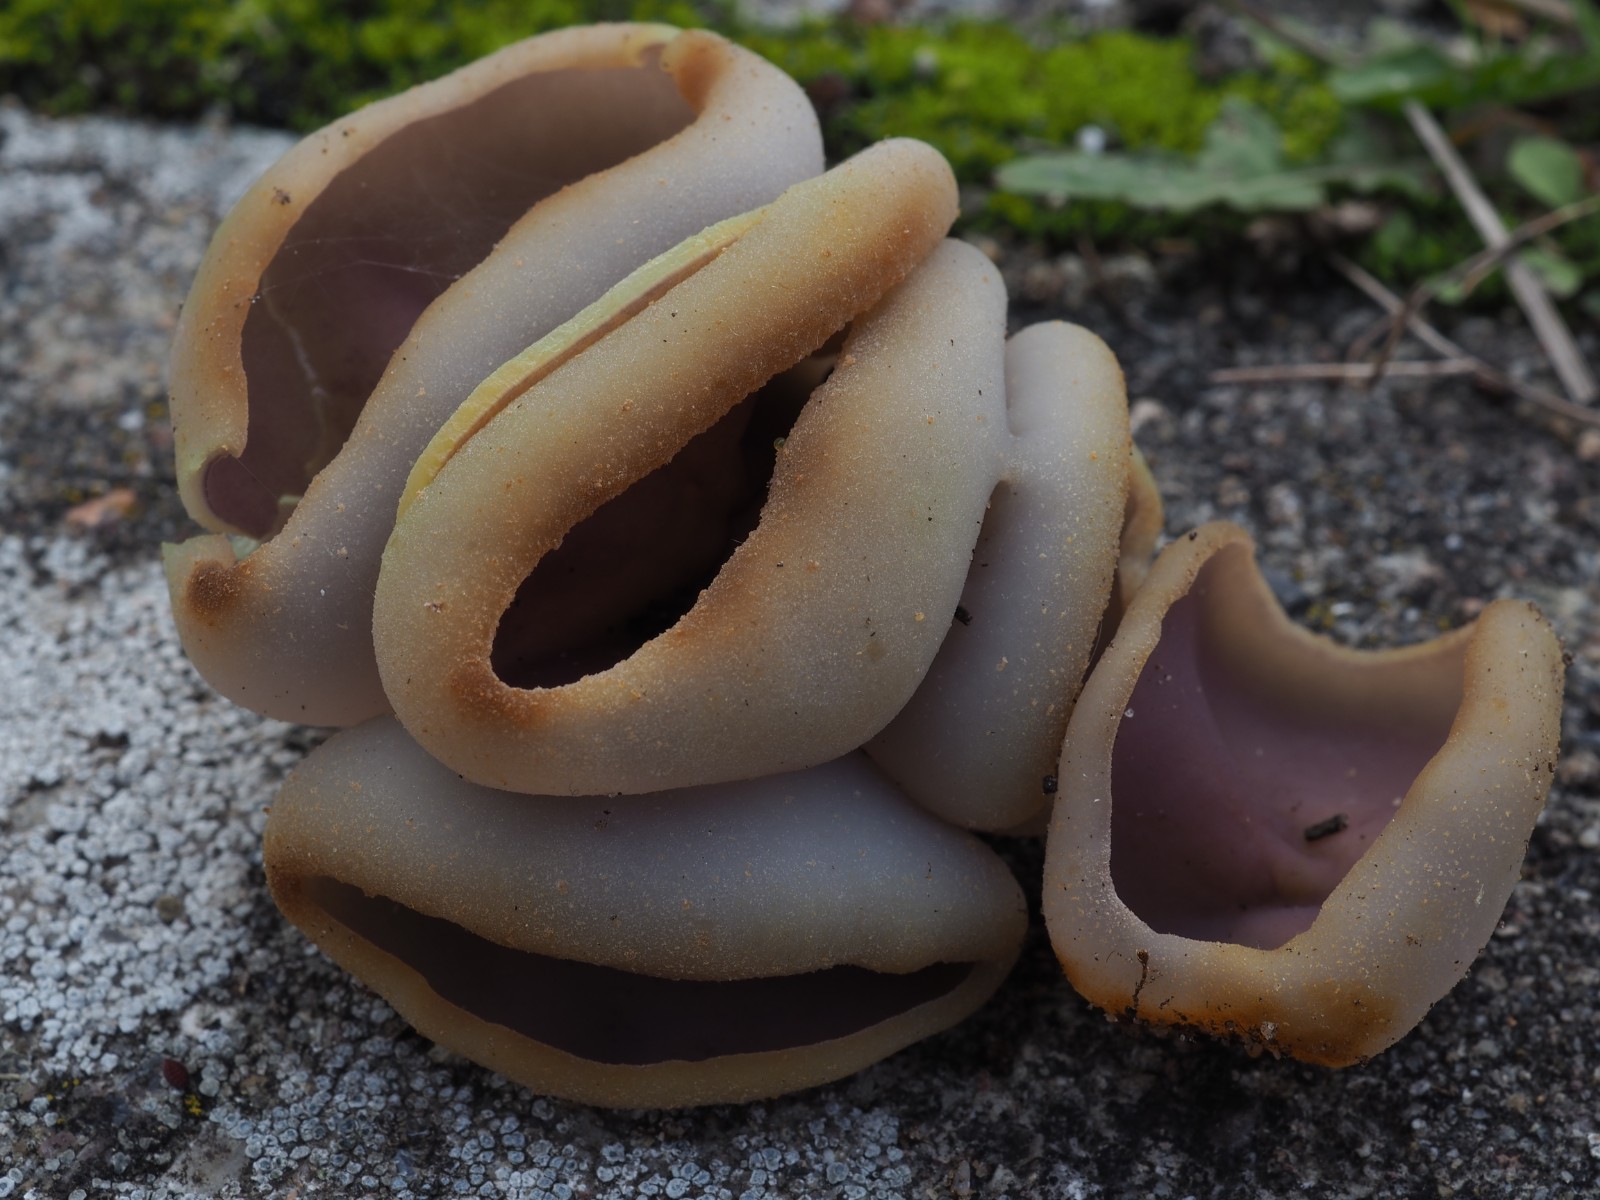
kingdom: Fungi
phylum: Ascomycota
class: Pezizomycetes
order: Pezizales
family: Pezizaceae
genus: Paragalactinia
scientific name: Paragalactinia michelii
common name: gulkødet bægersvamp
